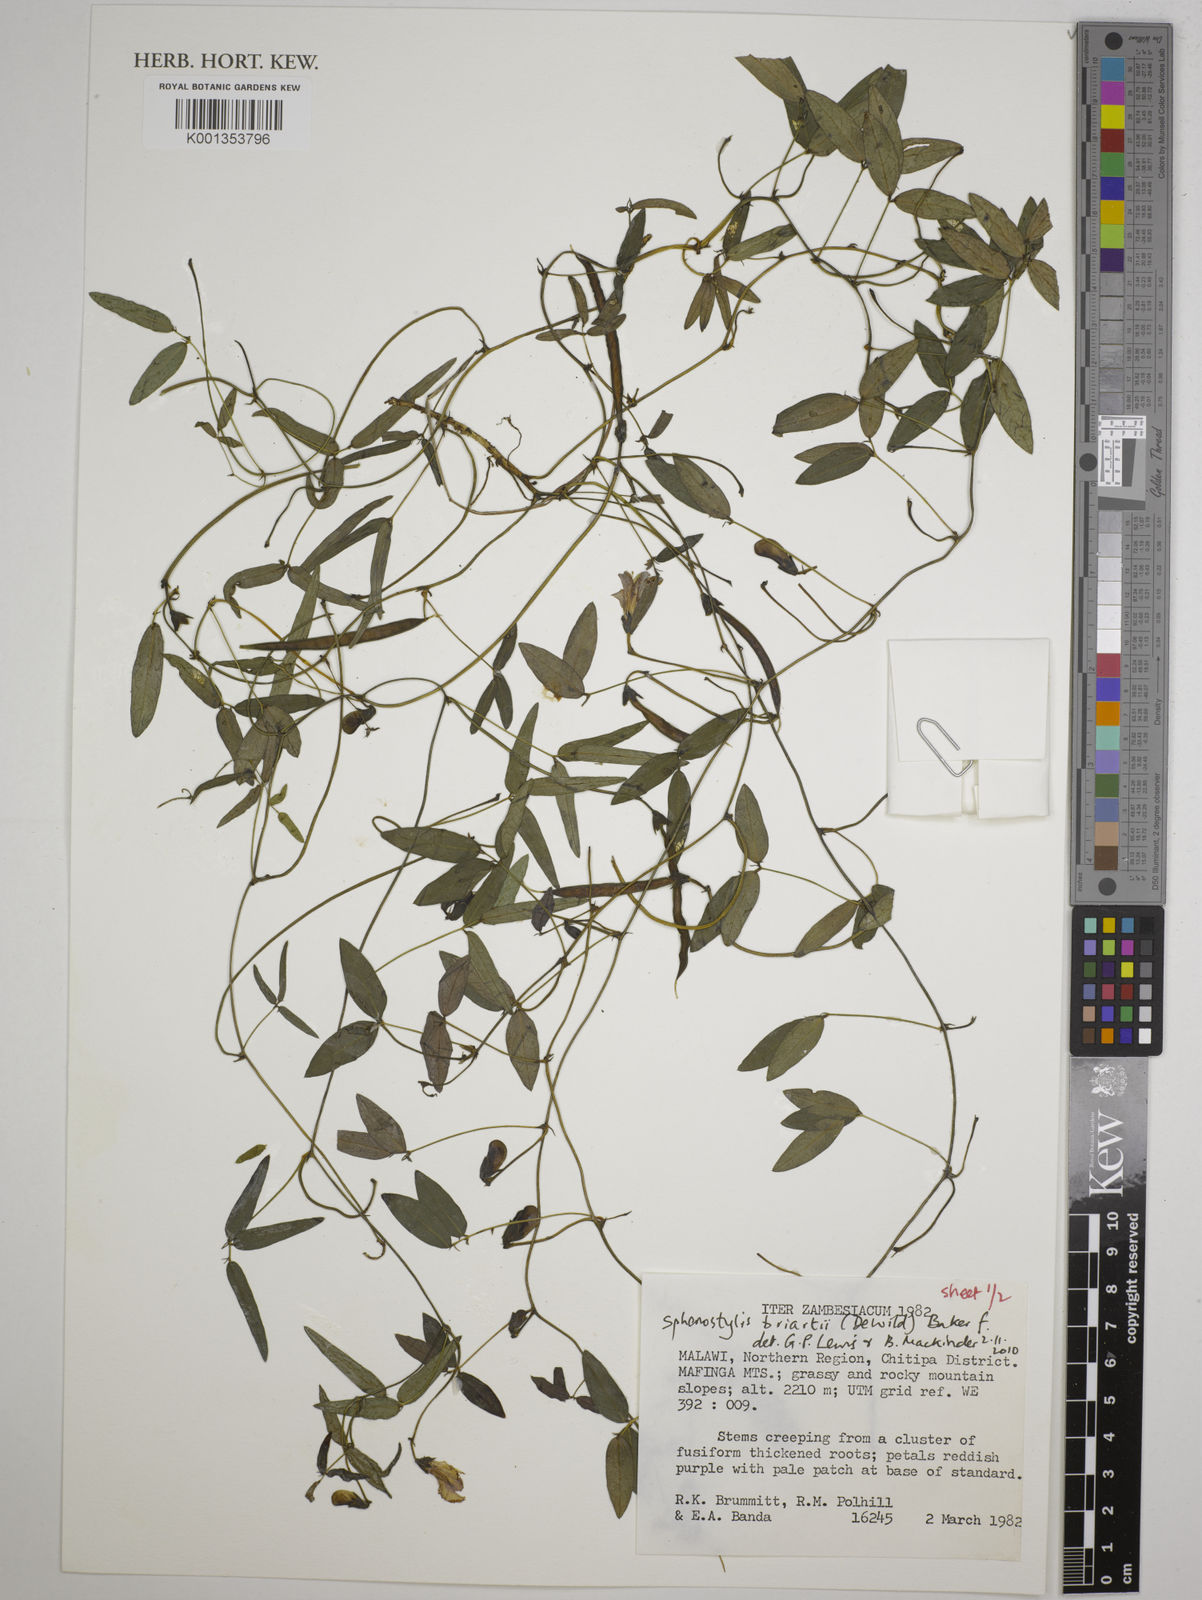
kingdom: Plantae
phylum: Tracheophyta
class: Magnoliopsida
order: Fabales
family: Fabaceae
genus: Sphenostylis
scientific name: Sphenostylis briartii
